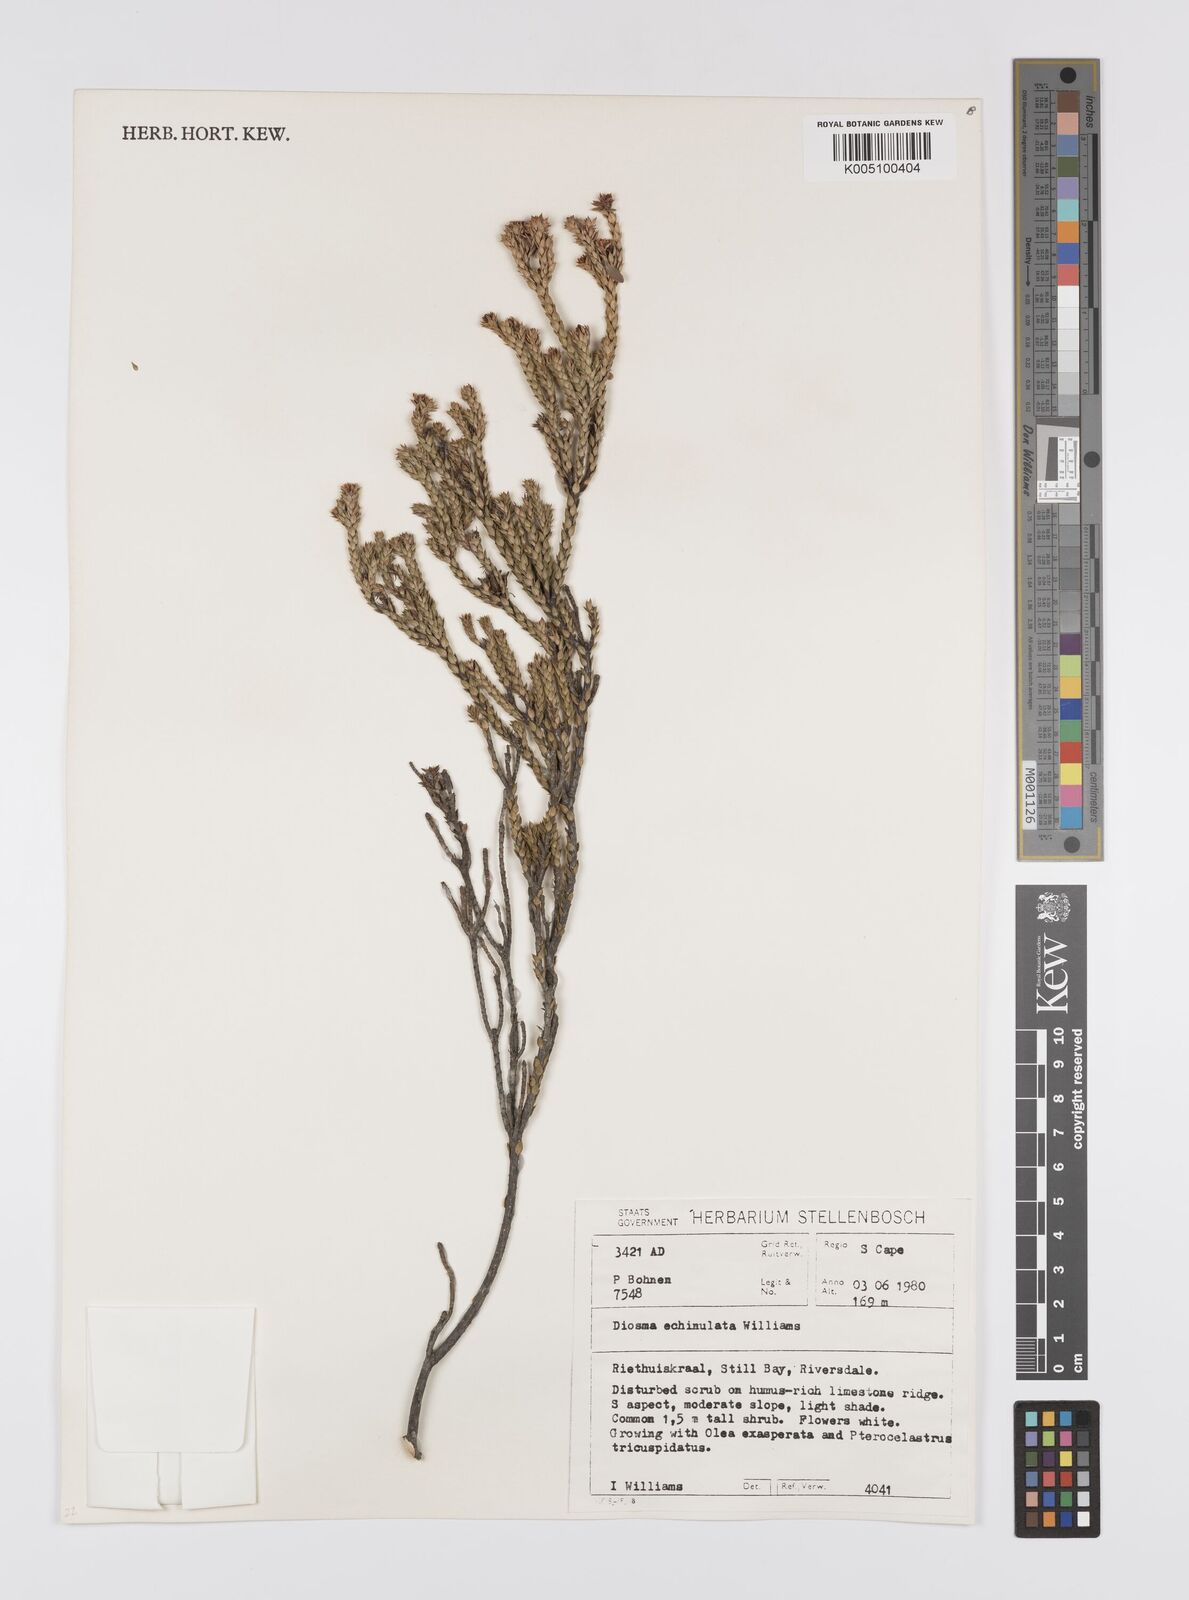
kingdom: Plantae
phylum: Tracheophyta
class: Magnoliopsida
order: Sapindales
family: Rutaceae
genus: Diosma
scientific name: Diosma echinulata
